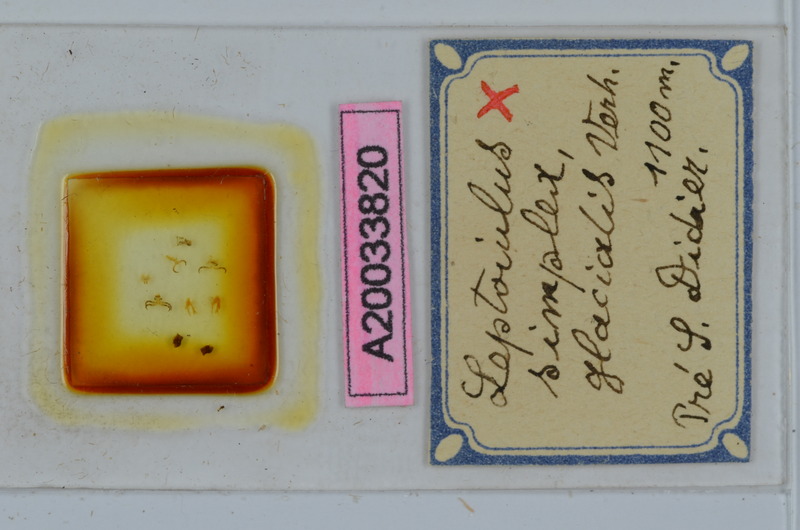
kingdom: Animalia
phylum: Arthropoda
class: Diplopoda
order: Julida
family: Julidae
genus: Leptoiulus
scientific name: Leptoiulus simplex
